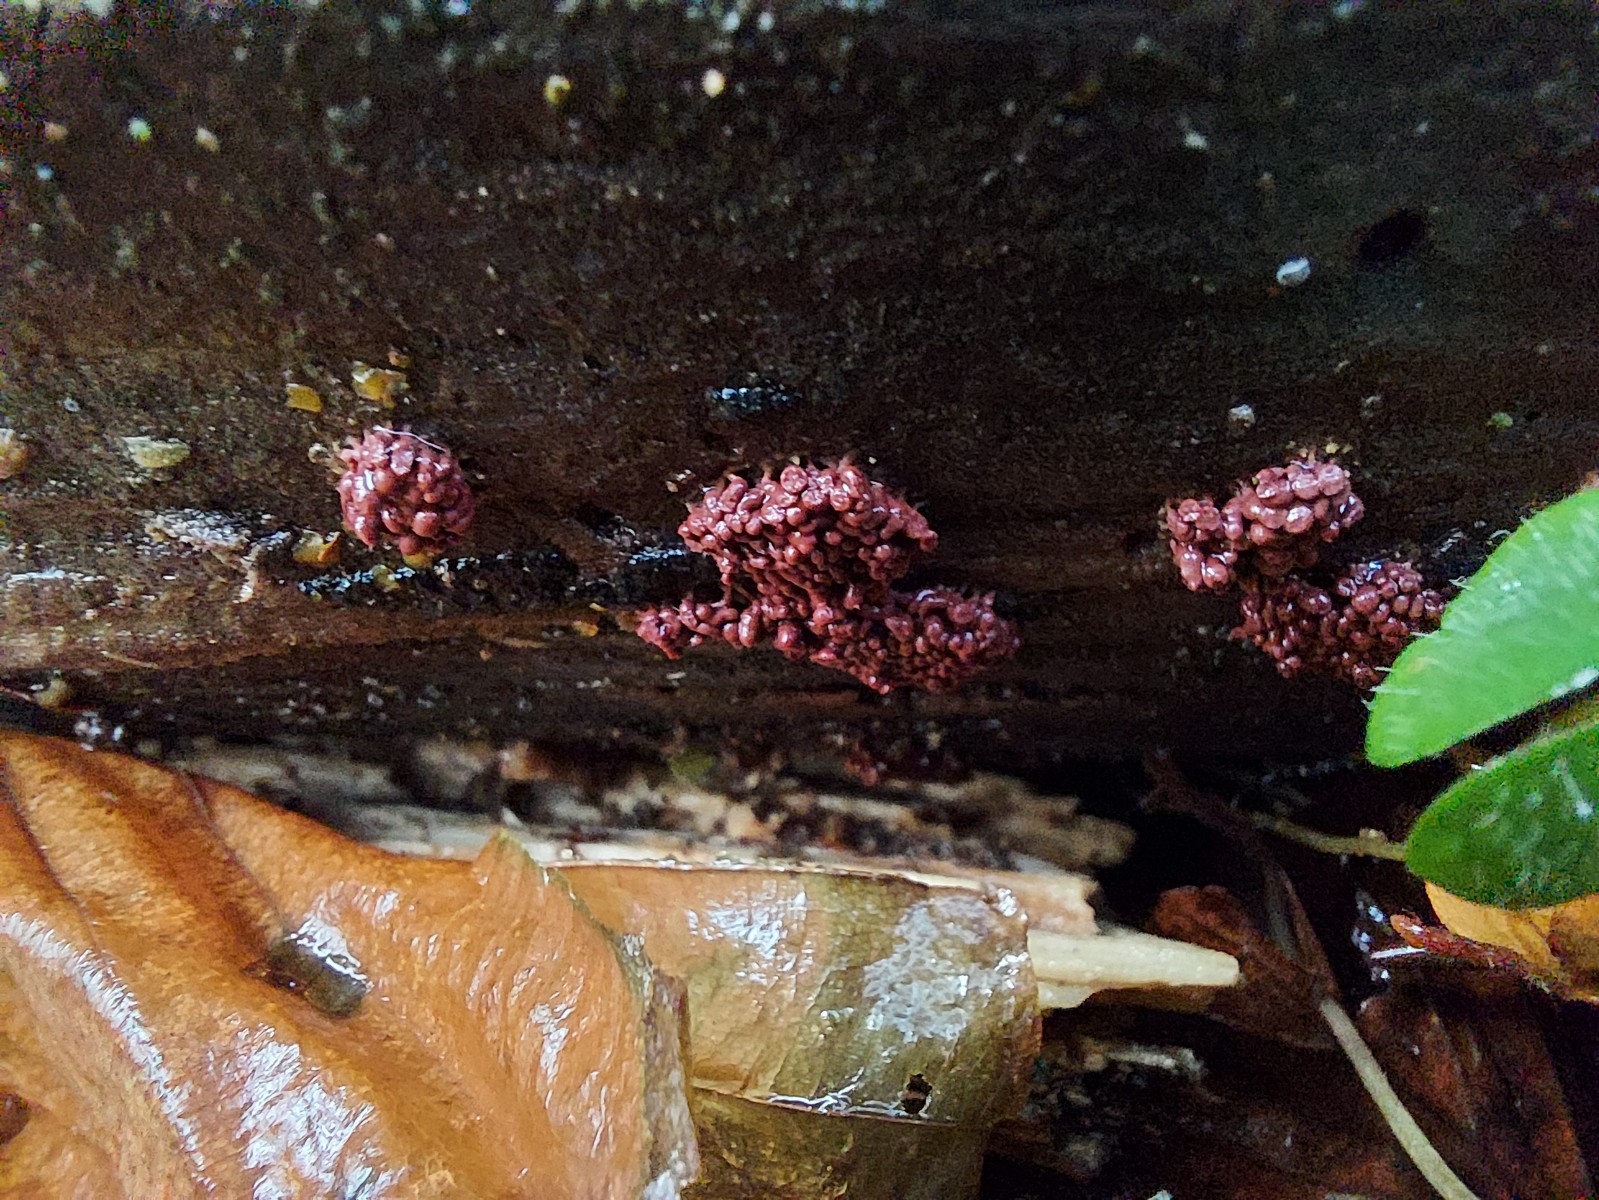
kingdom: Protozoa
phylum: Amoebozoa
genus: Arcyria
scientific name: Arcyria
